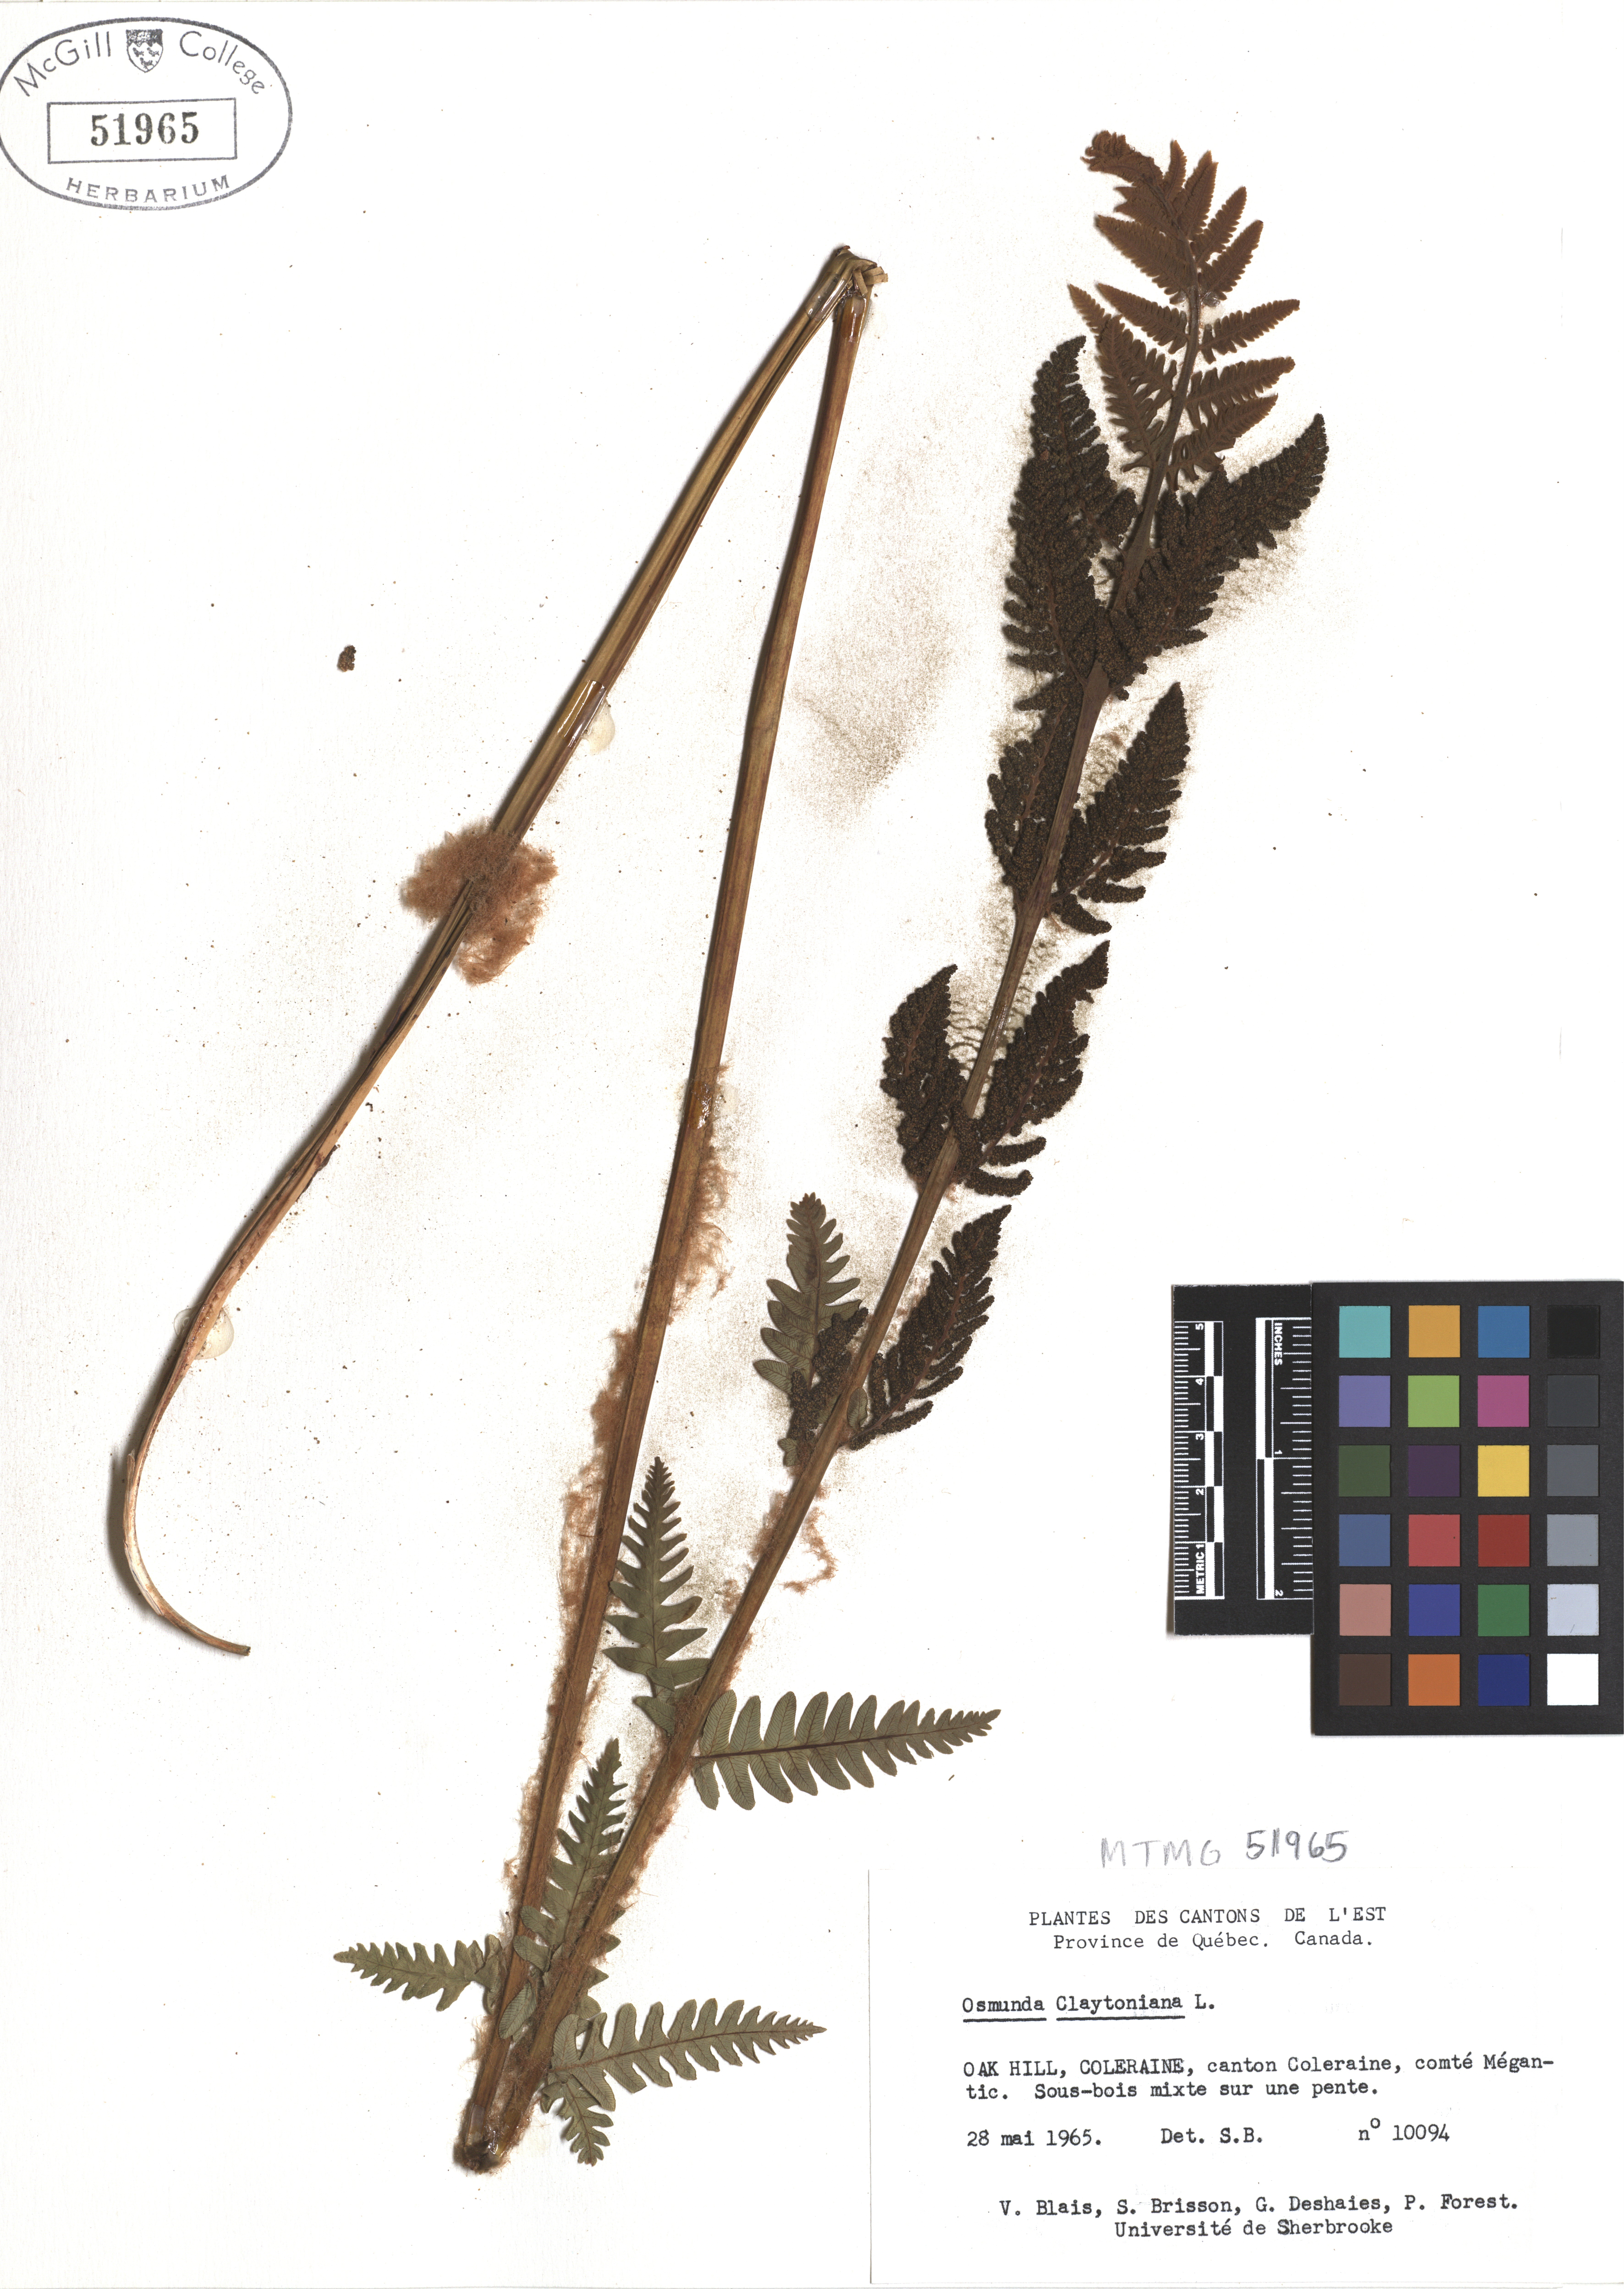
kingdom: Plantae
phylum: Tracheophyta
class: Polypodiopsida
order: Osmundales
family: Osmundaceae
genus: Claytosmunda
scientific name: Claytosmunda claytoniana
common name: Clayton's fern
